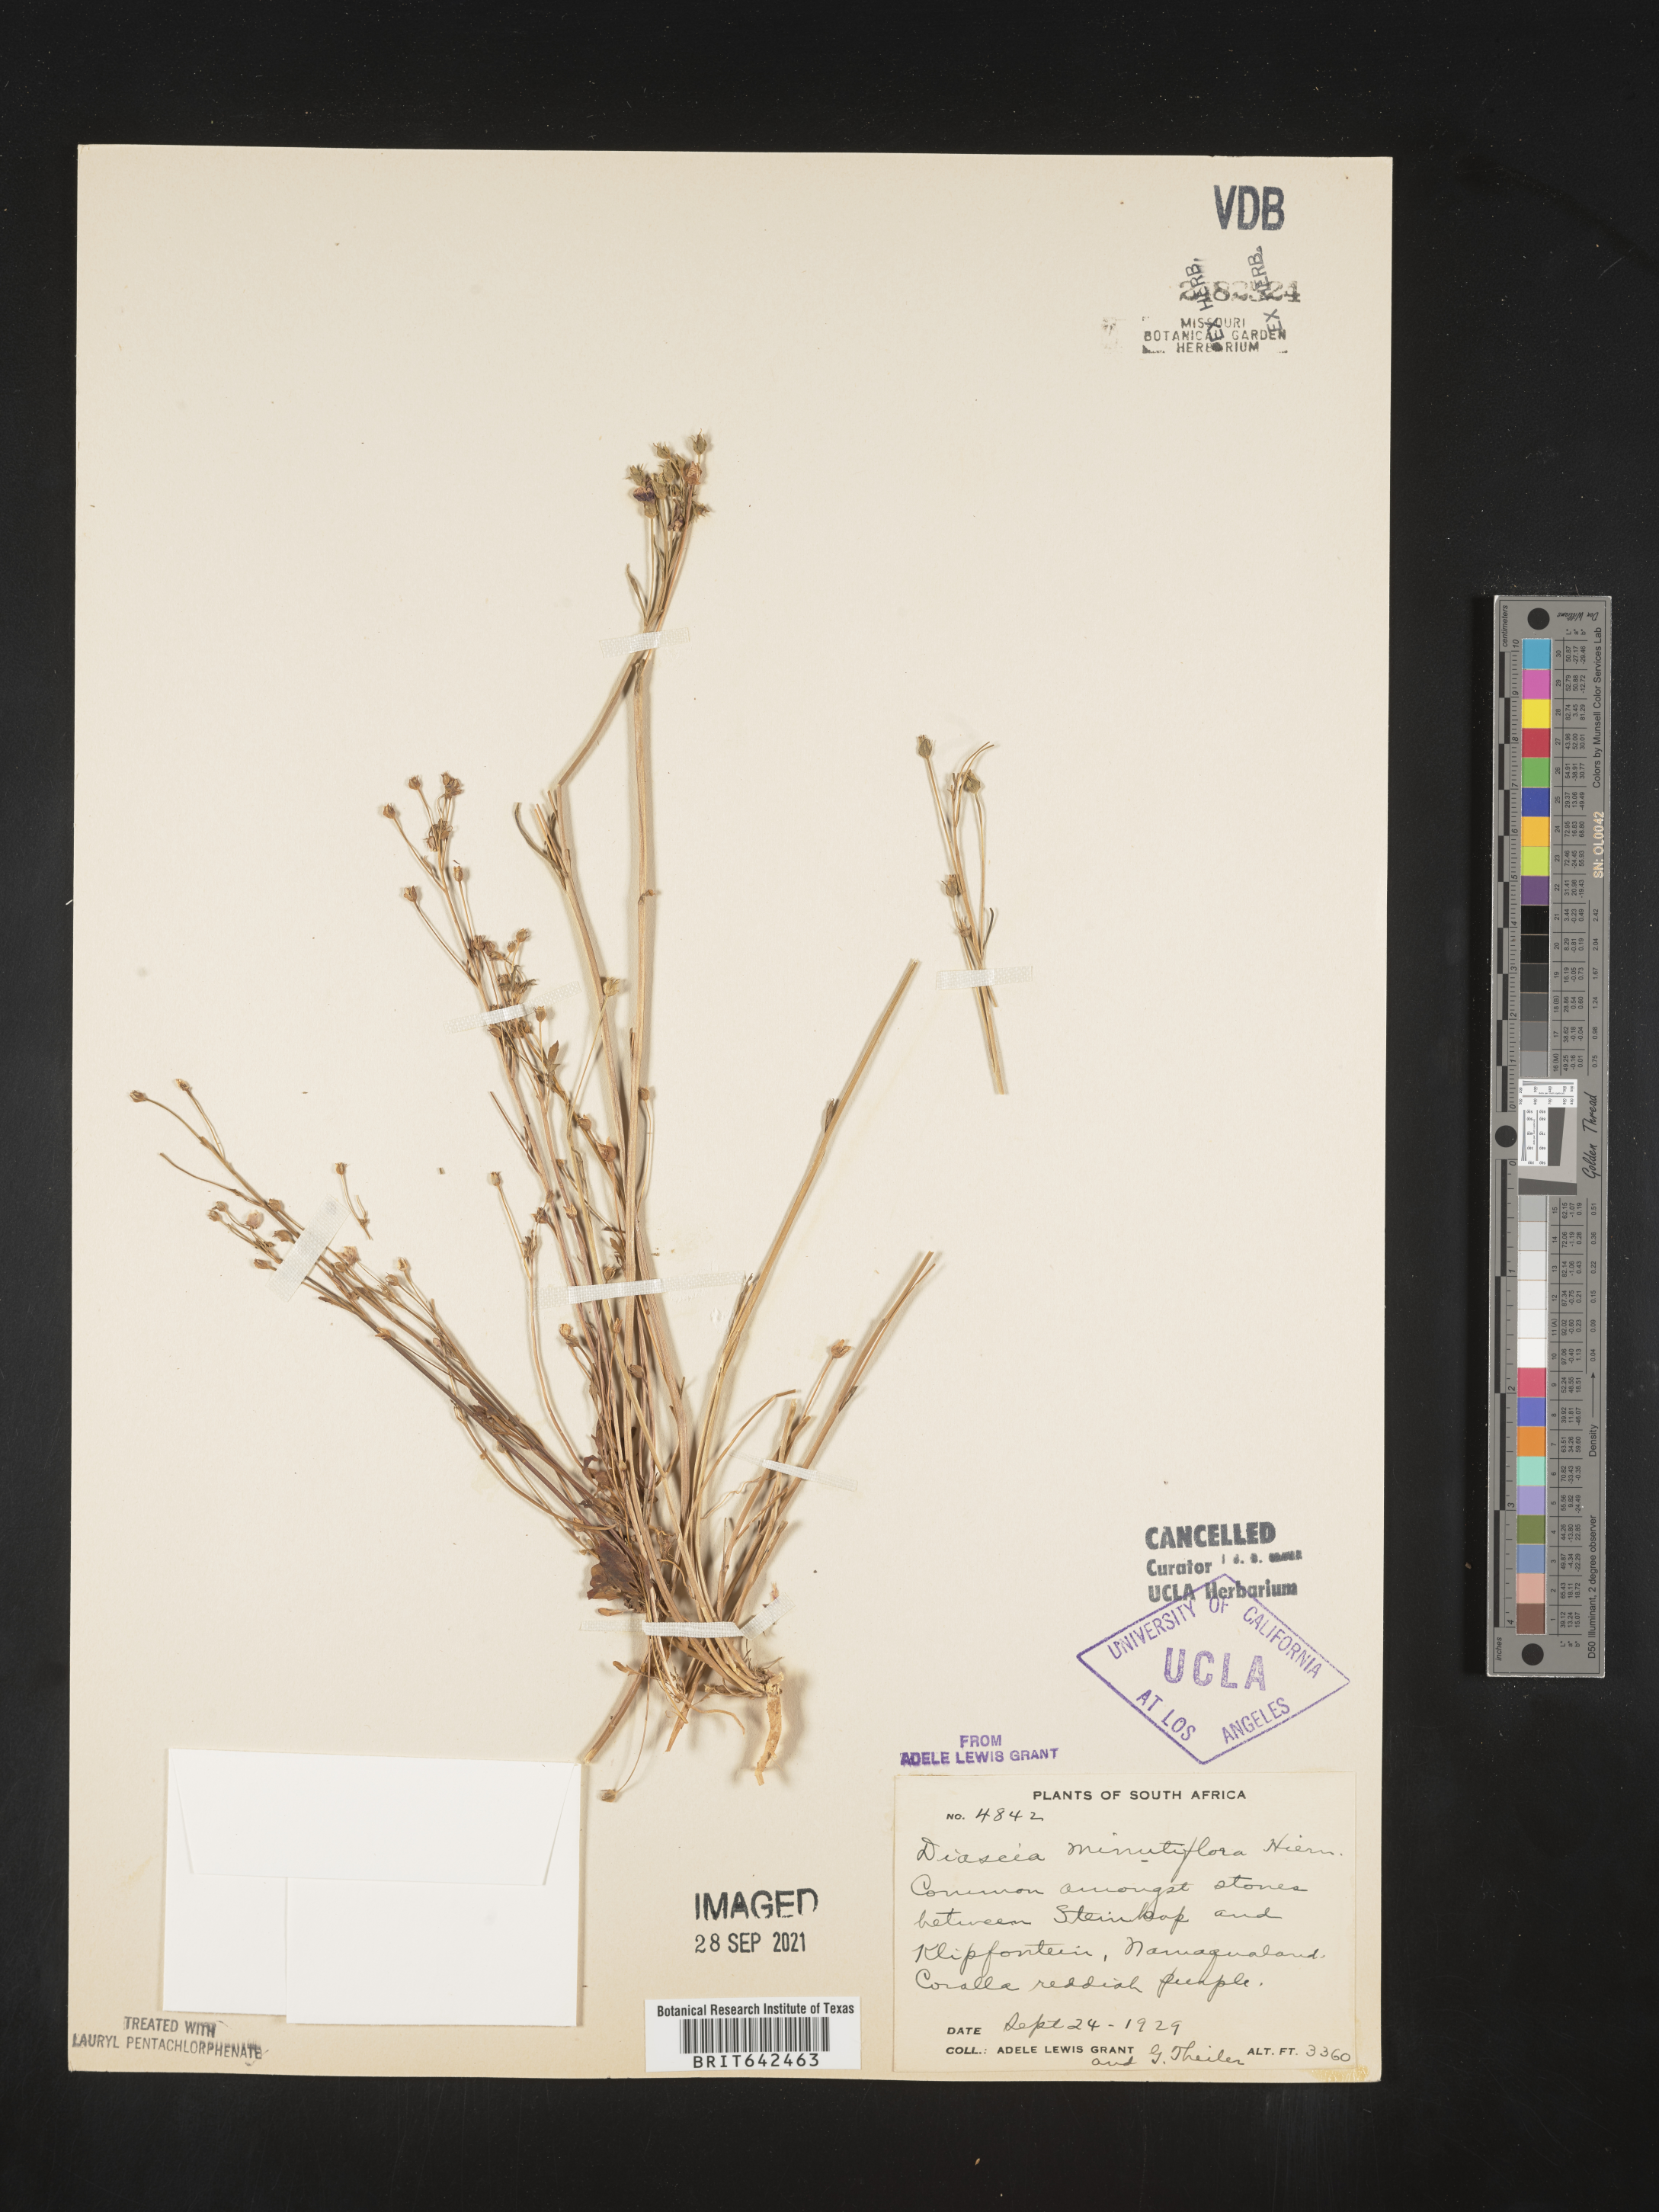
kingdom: Plantae
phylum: Tracheophyta
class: Magnoliopsida
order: Lamiales
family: Scrophulariaceae
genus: Diascia
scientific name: Diascia
